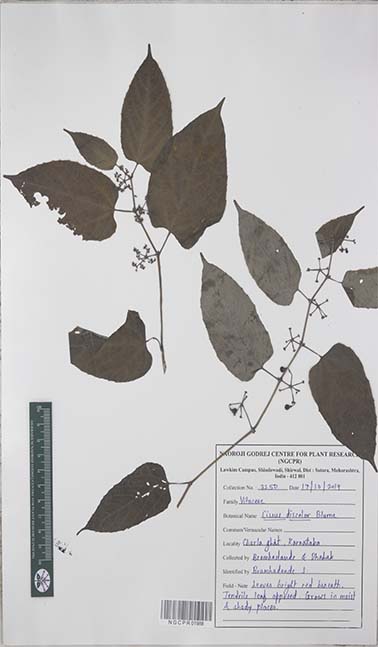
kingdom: Plantae
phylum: Tracheophyta
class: Magnoliopsida
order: Vitales
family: Vitaceae
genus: Cissus
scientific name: Cissus discolor
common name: Climbing-begonia
